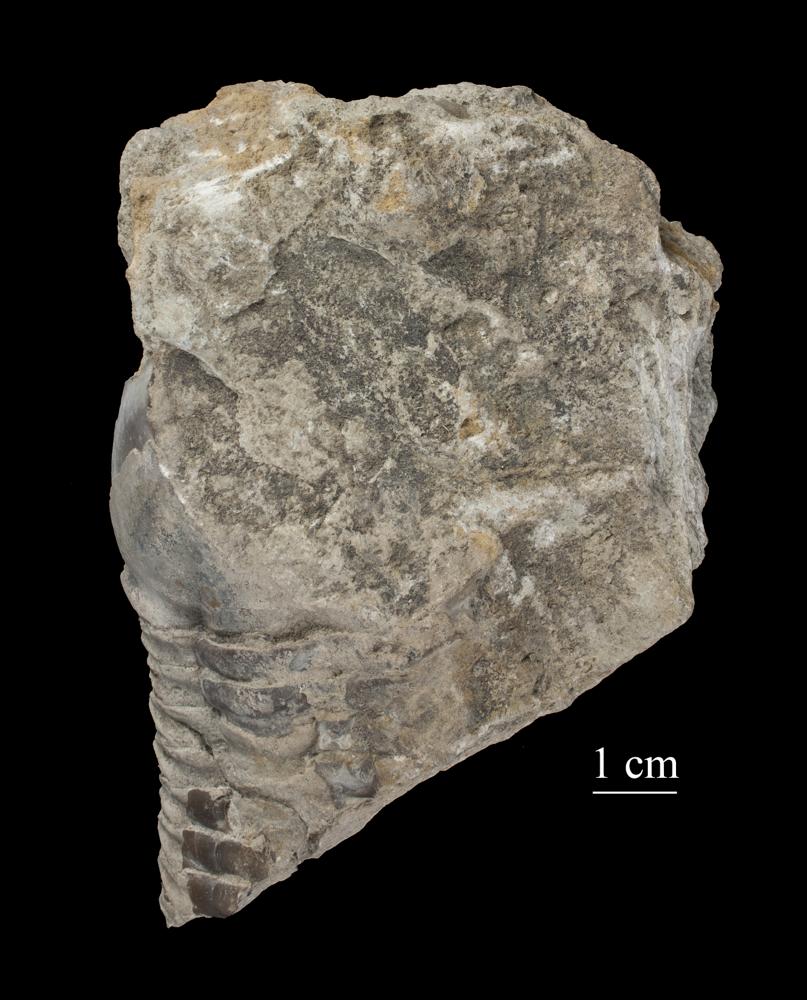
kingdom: Animalia
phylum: Arthropoda
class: Trilobita
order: Asaphida
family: Asaphidae
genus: Asaphus
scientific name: Asaphus cornutus
